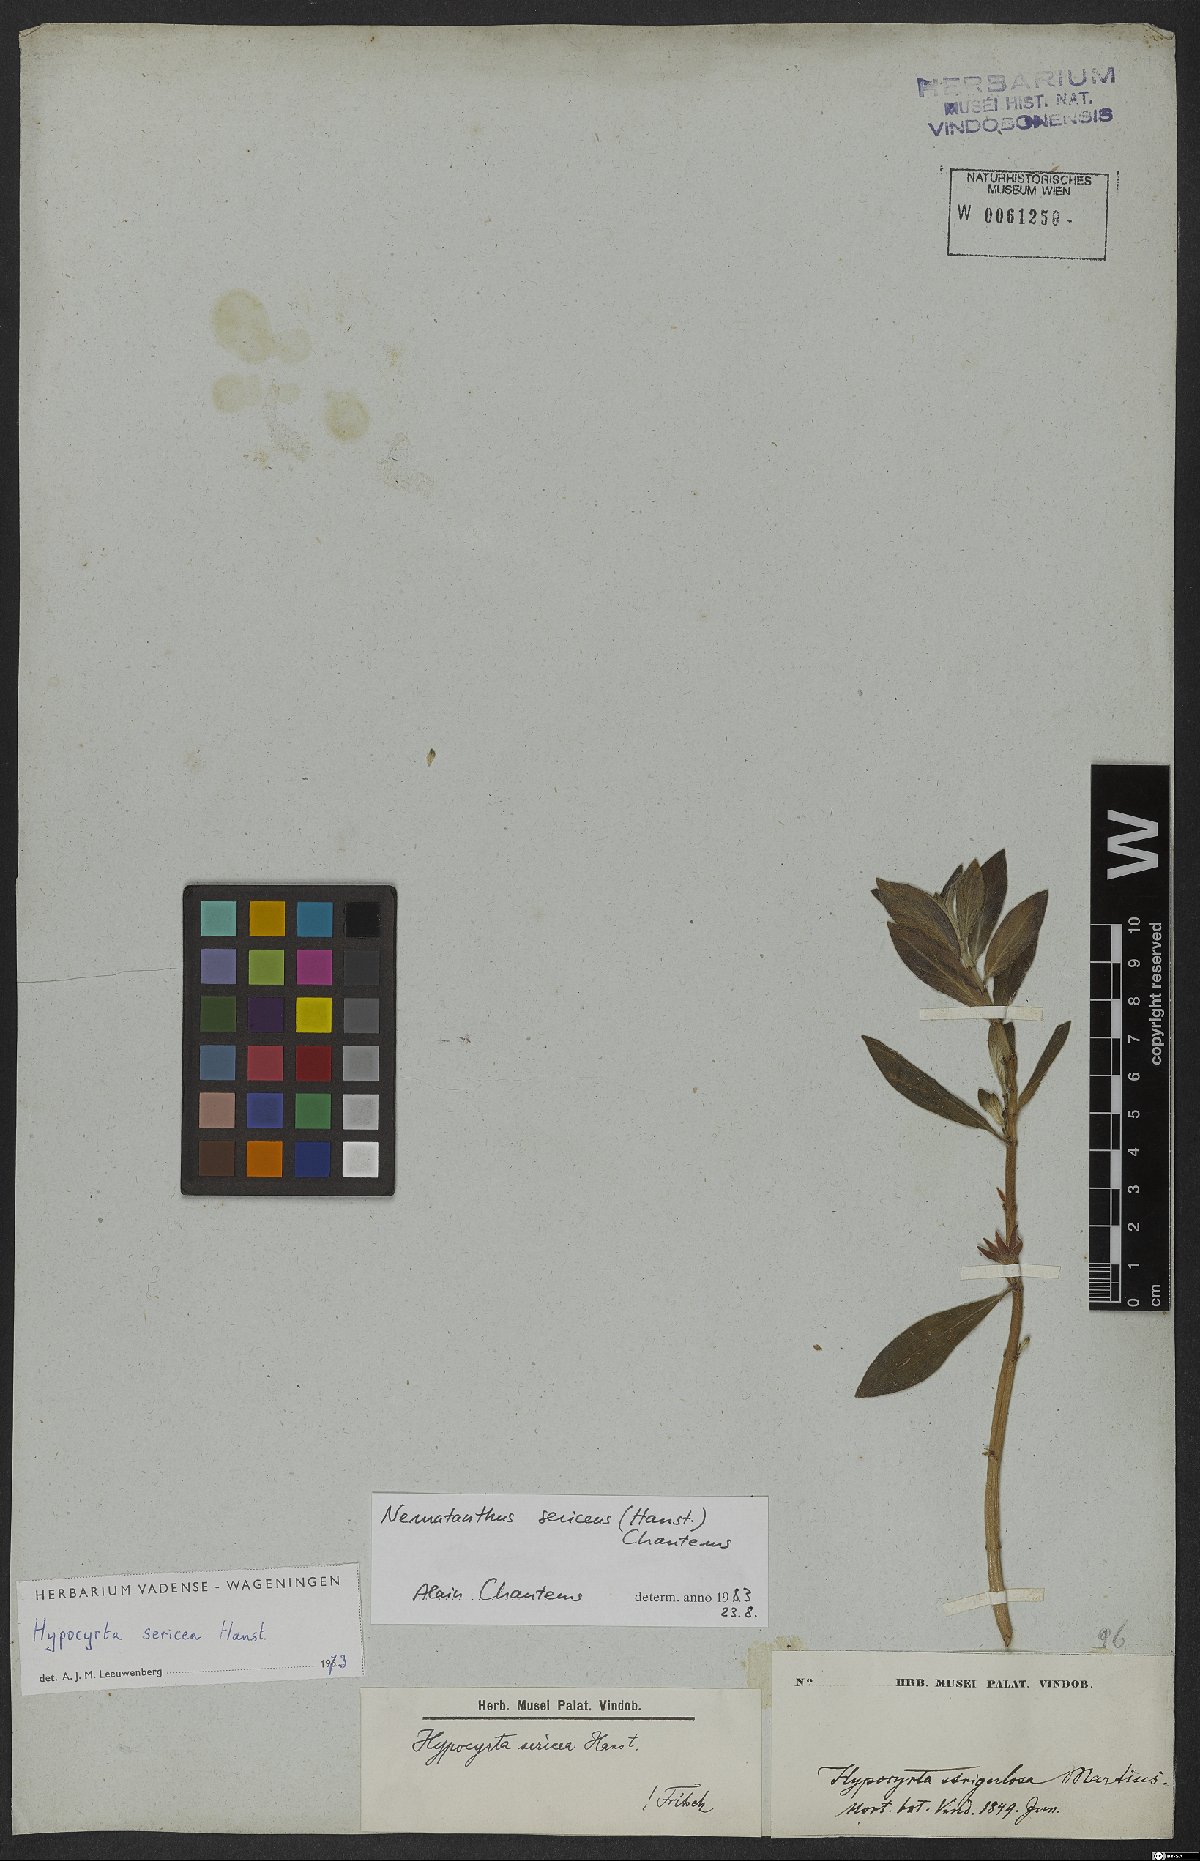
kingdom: Plantae
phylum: Tracheophyta
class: Magnoliopsida
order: Lamiales
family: Gesneriaceae
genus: Nematanthus
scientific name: Nematanthus sericeus
